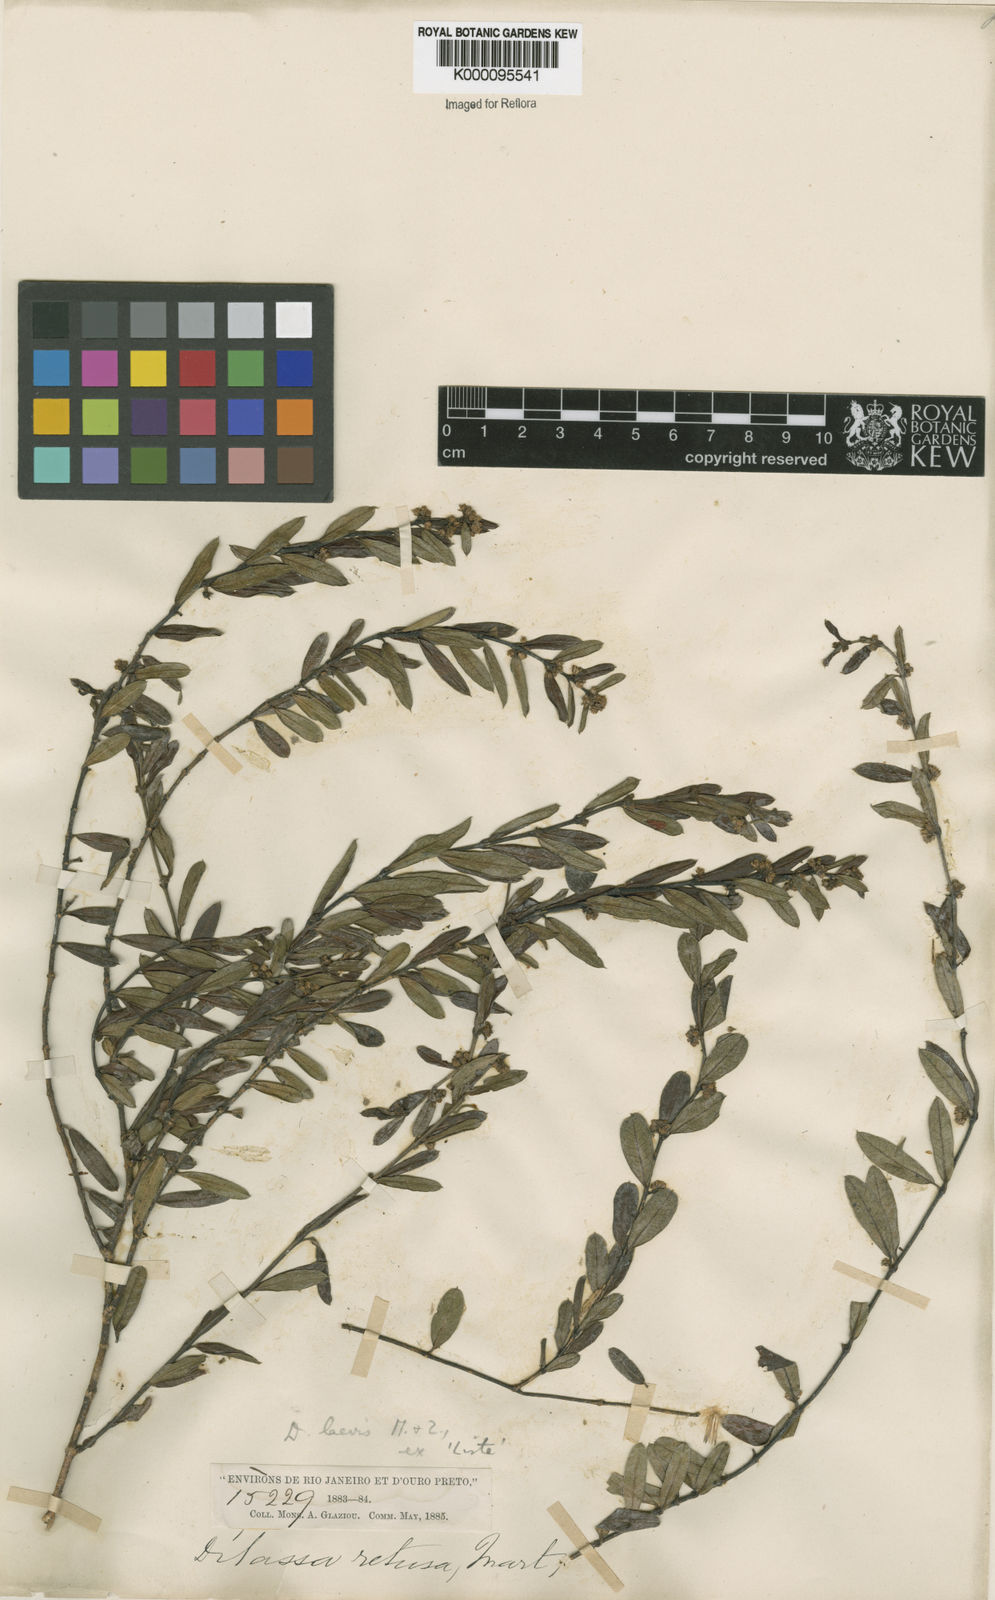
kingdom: Plantae
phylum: Tracheophyta
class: Magnoliopsida
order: Gentianales
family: Apocynaceae
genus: Ditassa
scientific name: Ditassa laevis
